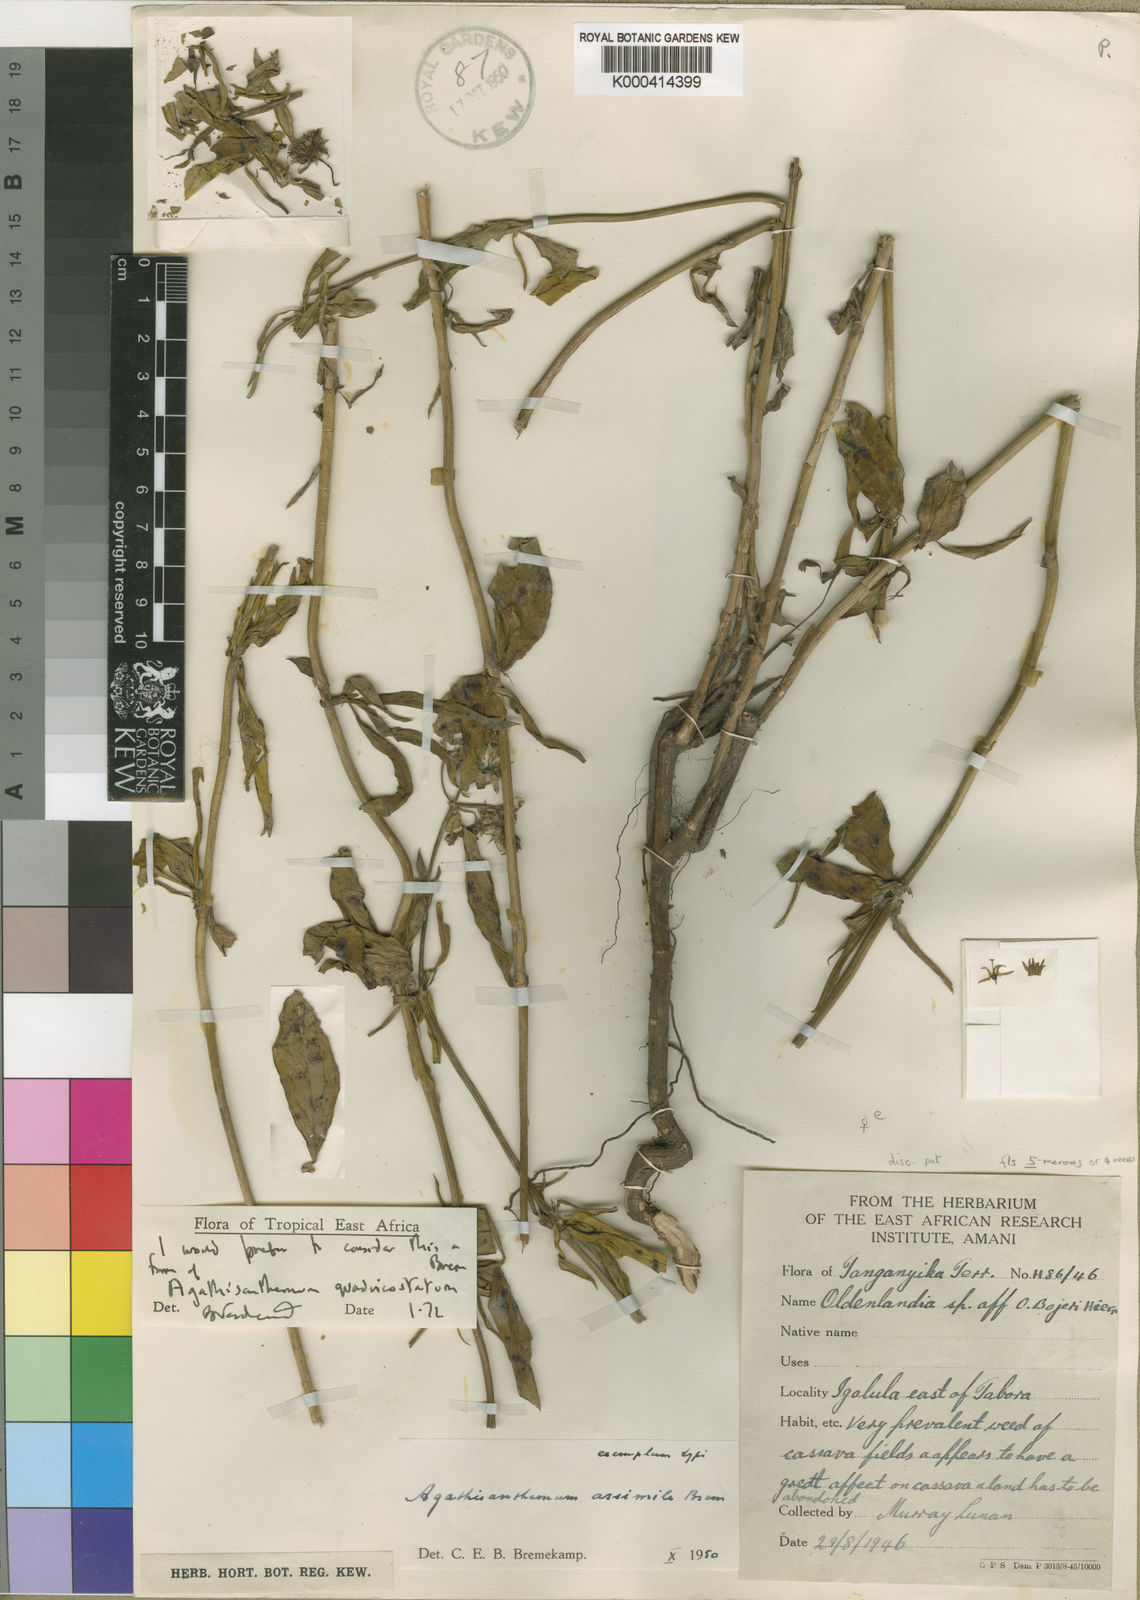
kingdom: Plantae
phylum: Tracheophyta
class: Magnoliopsida
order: Gentianales
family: Rubiaceae
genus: Agathisanthemum
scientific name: Agathisanthemum globosum
